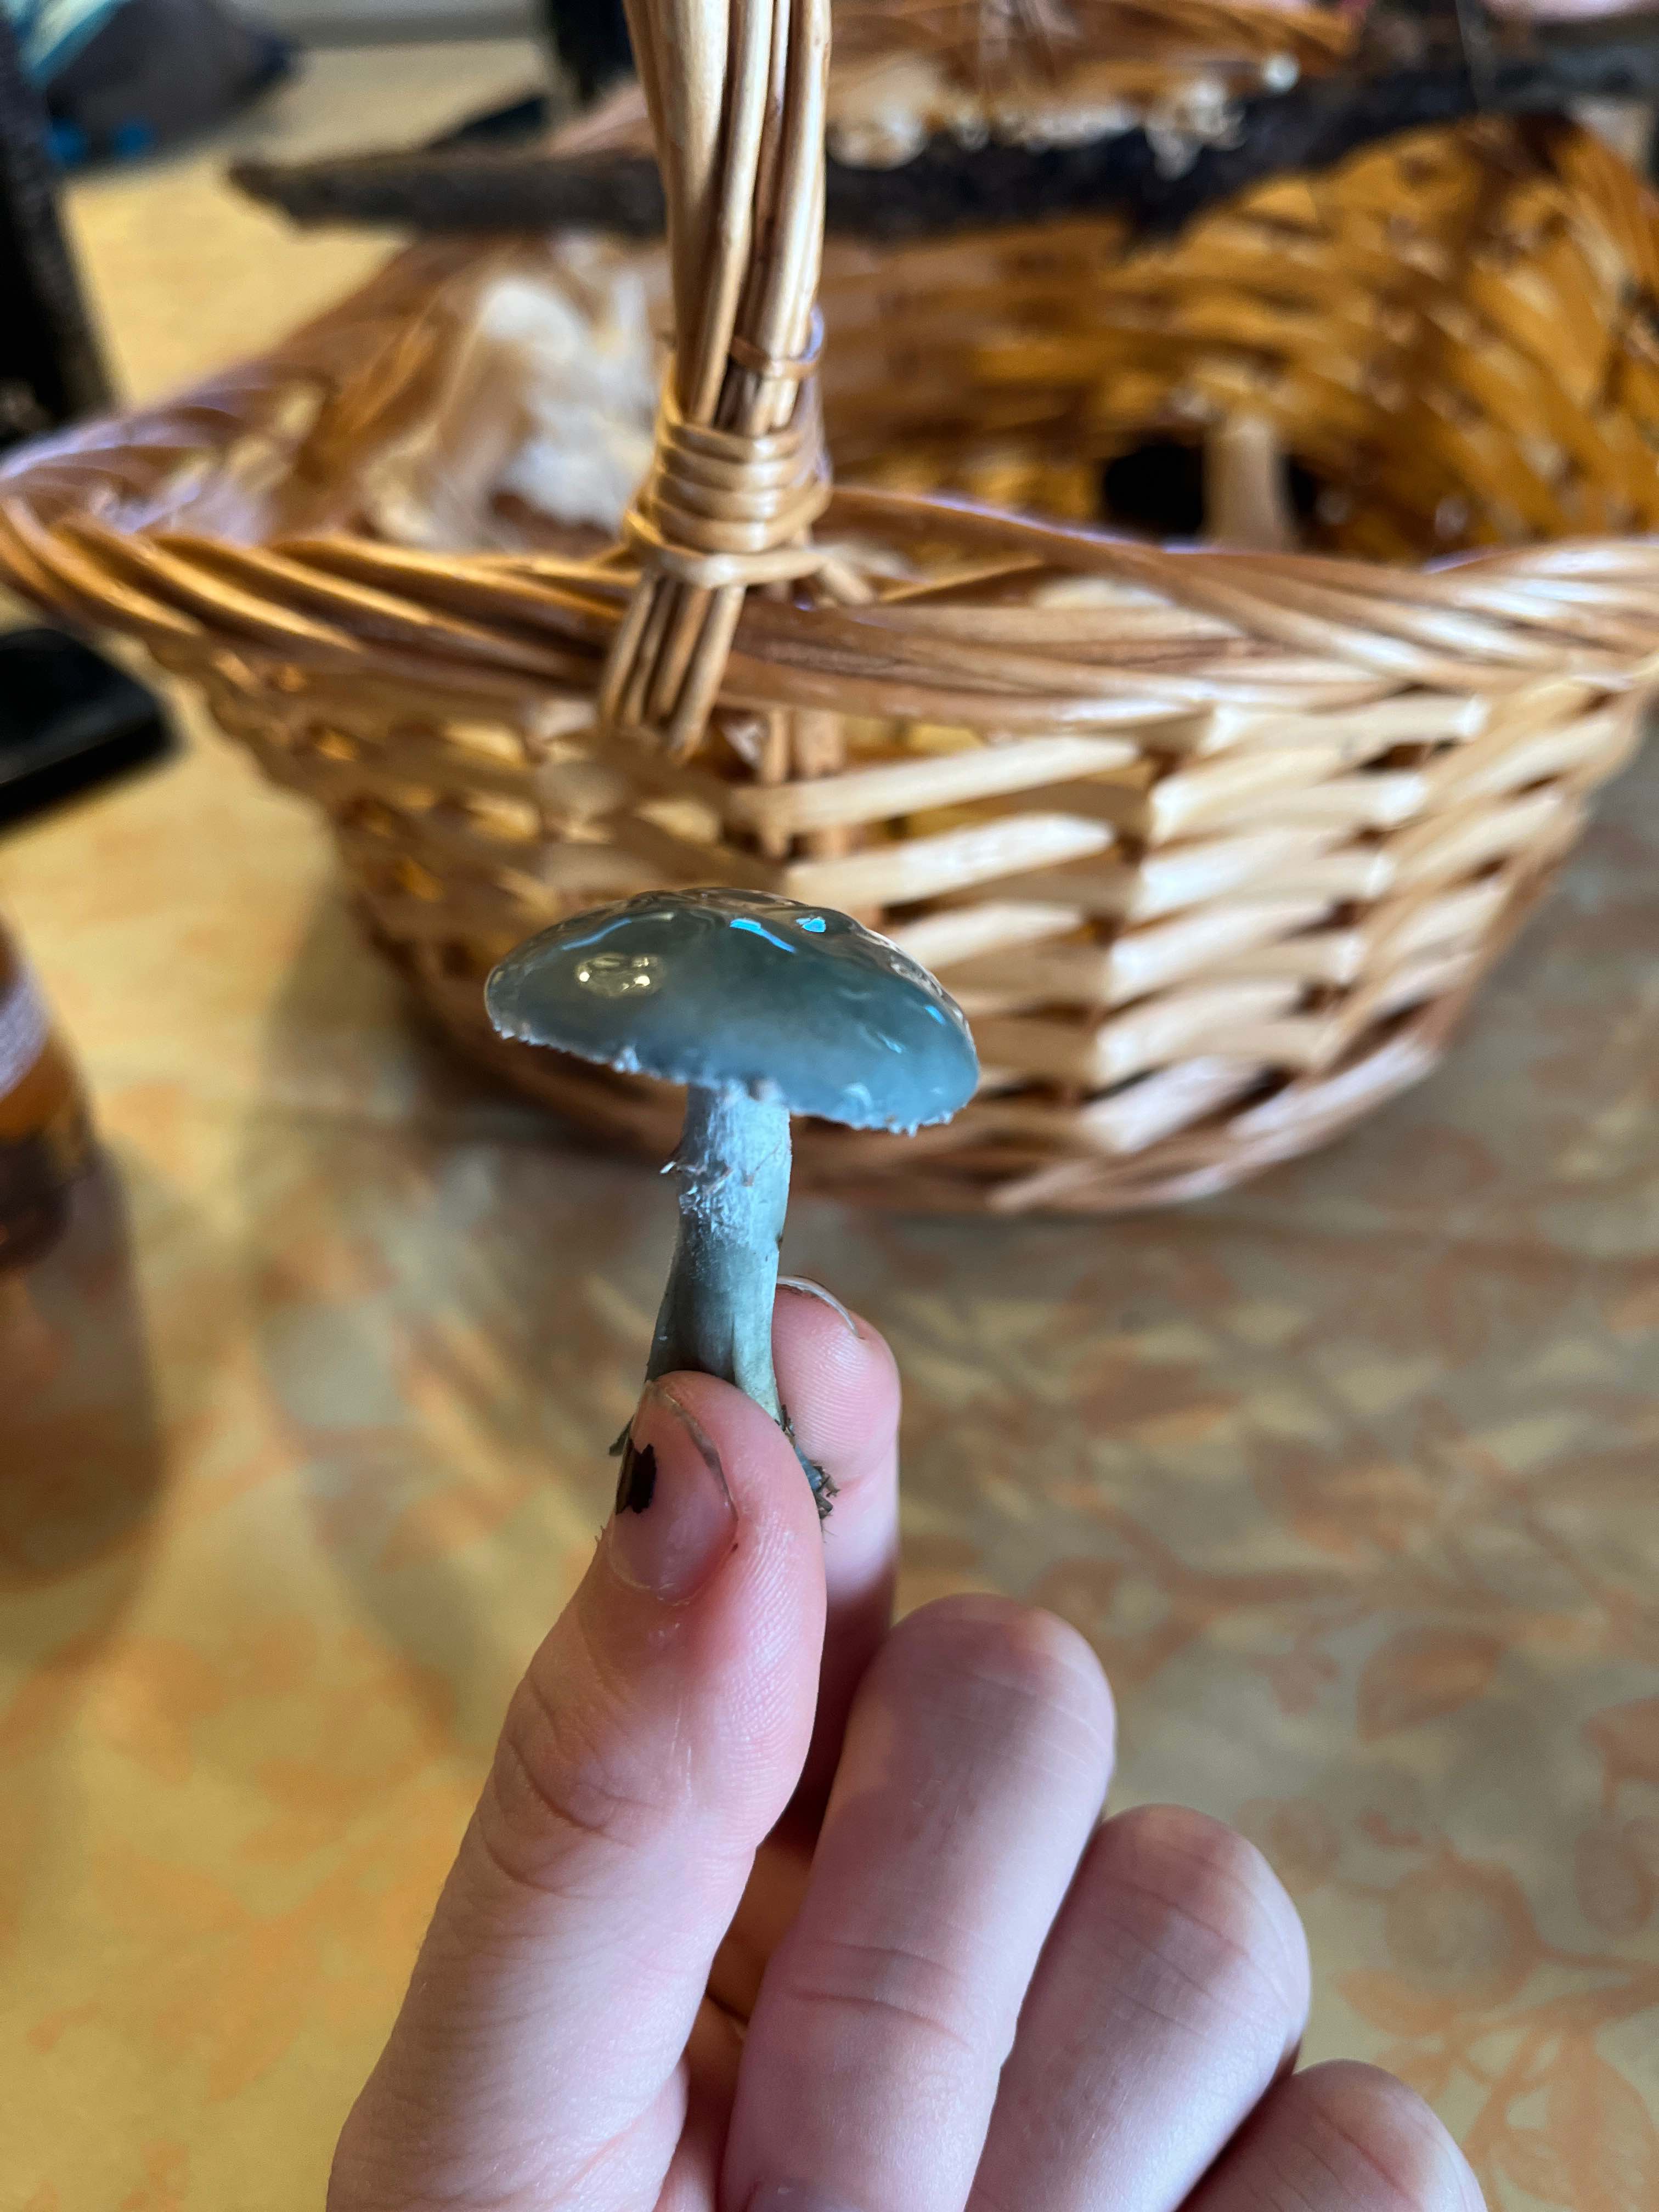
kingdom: Fungi
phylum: Basidiomycota
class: Agaricomycetes
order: Agaricales
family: Strophariaceae
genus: Stropharia
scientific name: Stropharia
